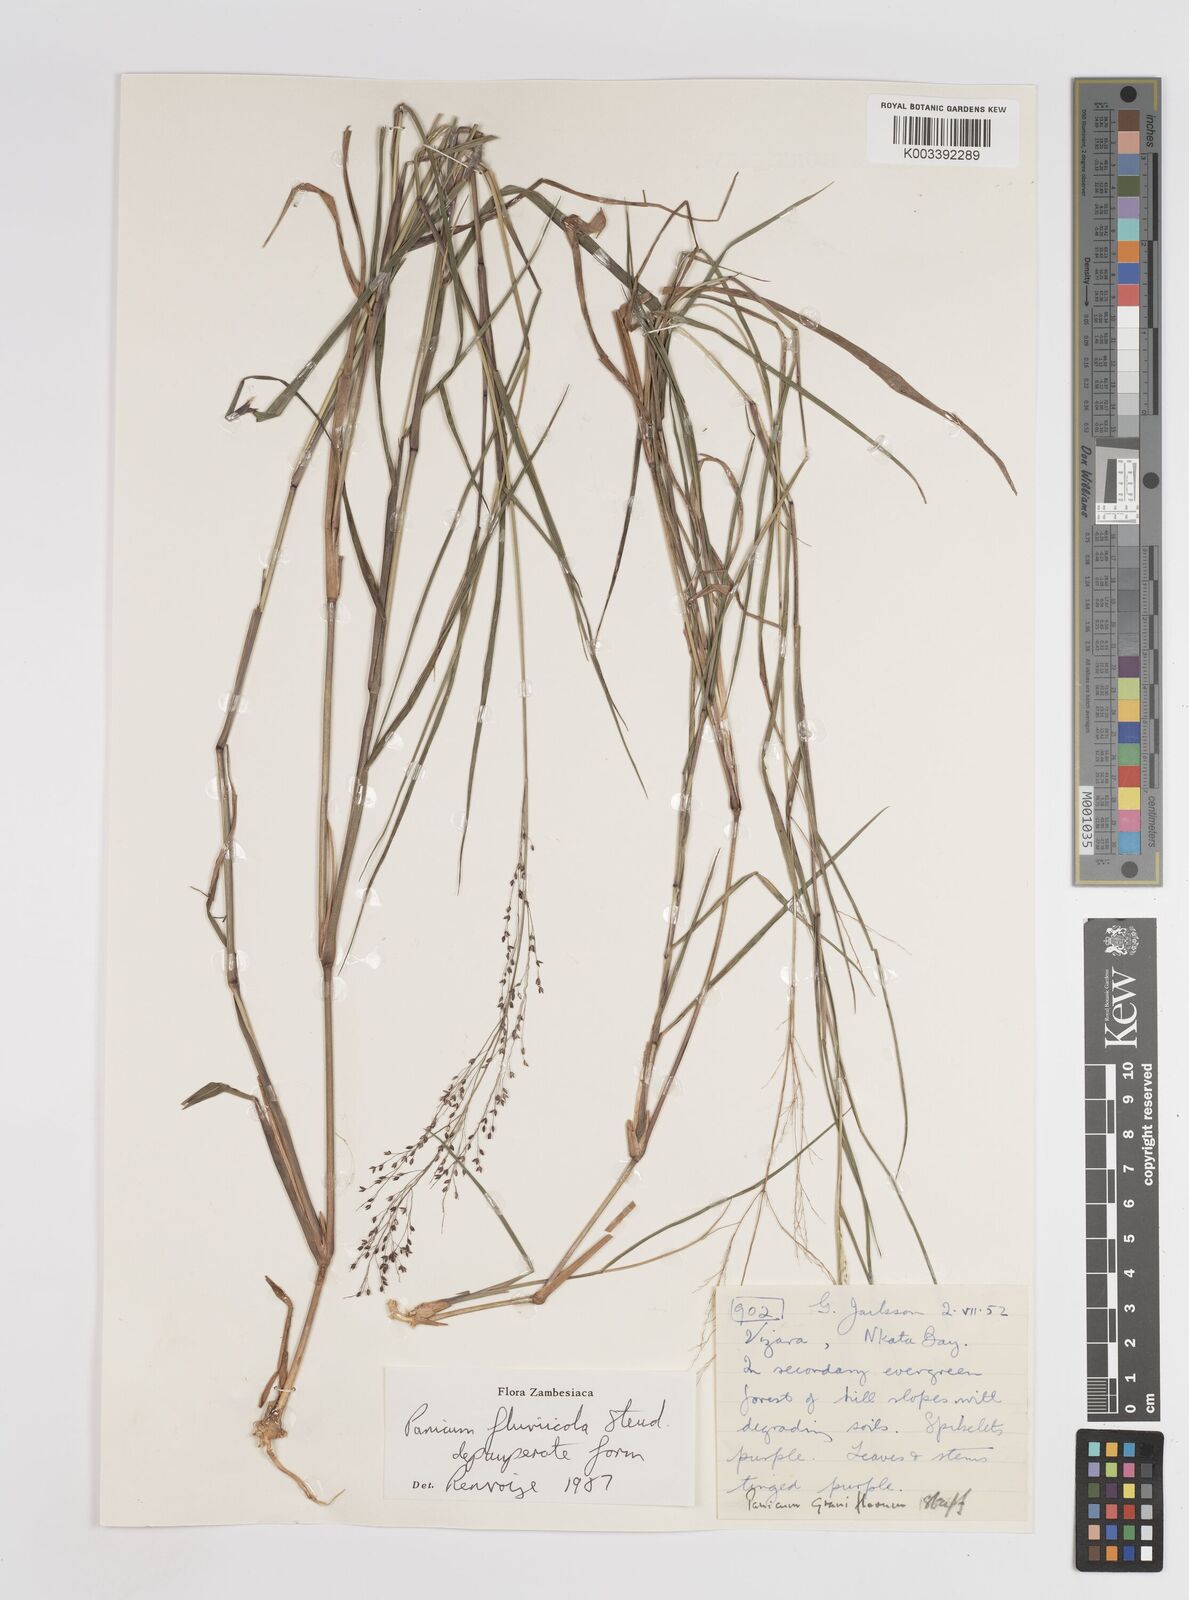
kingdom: Plantae
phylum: Tracheophyta
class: Liliopsida
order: Poales
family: Poaceae
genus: Panicum
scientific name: Panicum fluviicola
